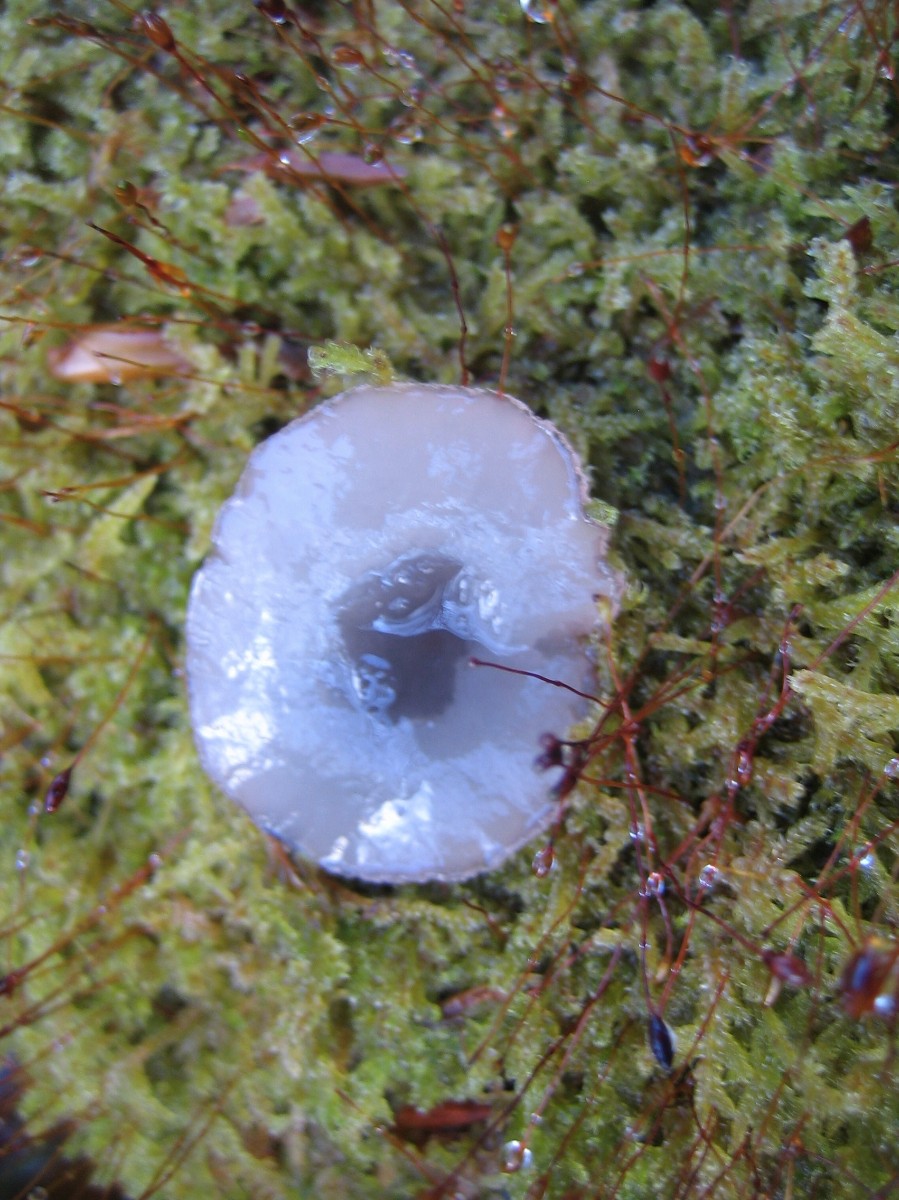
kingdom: Fungi
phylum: Ascomycota
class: Leotiomycetes
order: Helotiales
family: Gelatinodiscaceae
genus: Neobulgaria
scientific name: Neobulgaria pura
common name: bleg bævreskive
